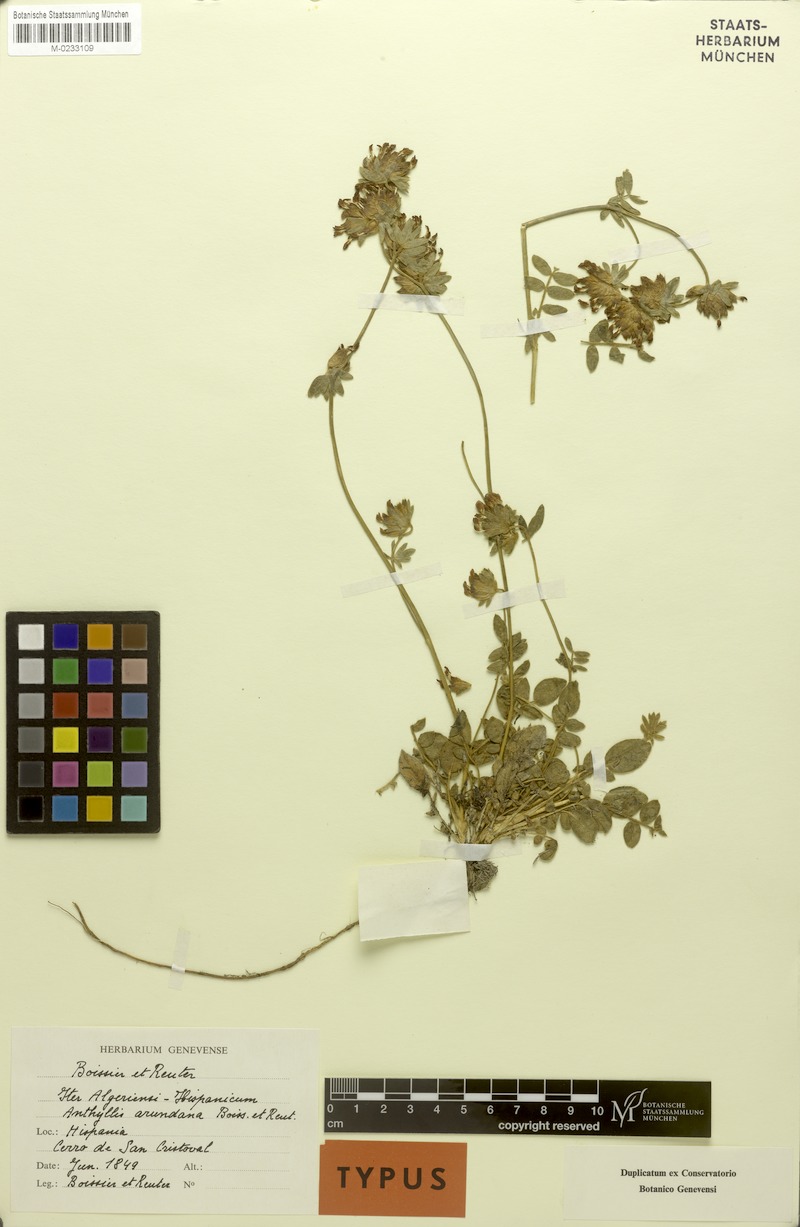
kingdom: Plantae
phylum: Tracheophyta
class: Magnoliopsida
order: Fabales
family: Fabaceae
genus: Anthyllis
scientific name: Anthyllis vulneraria
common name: Kidney vetch
